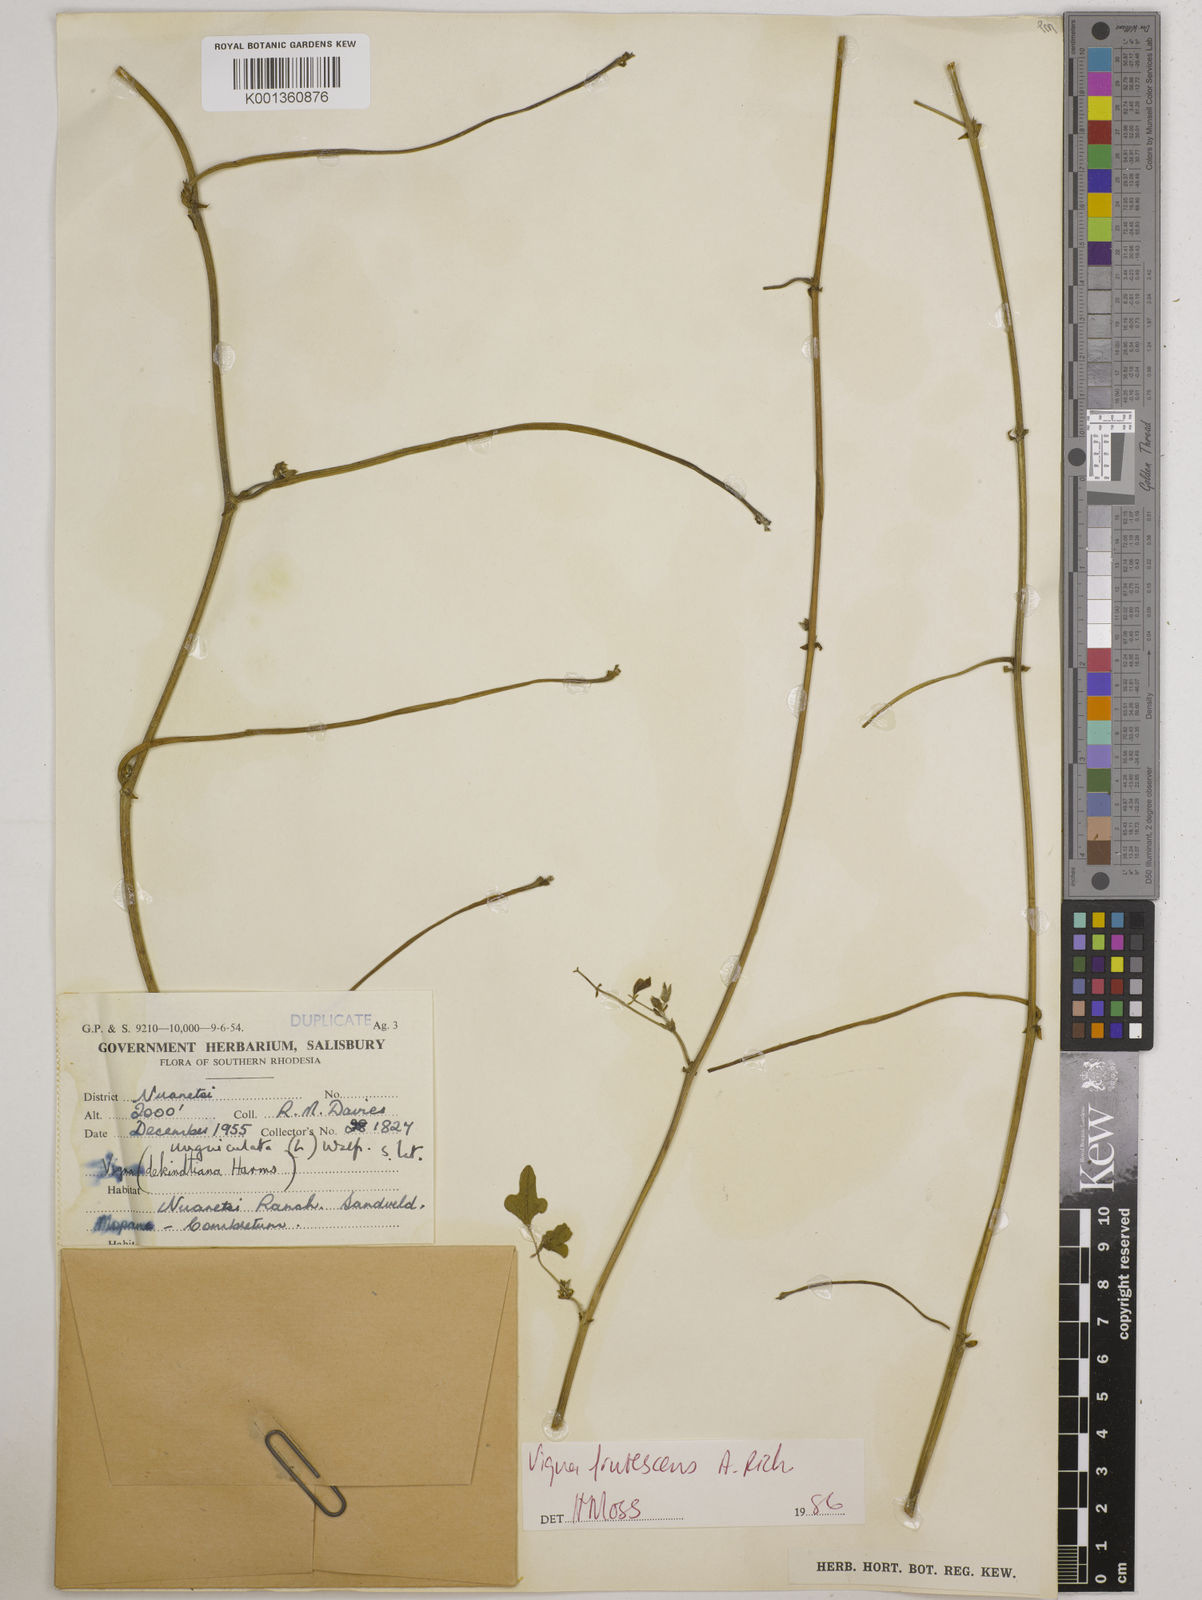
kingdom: Plantae
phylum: Tracheophyta
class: Magnoliopsida
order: Fabales
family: Fabaceae
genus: Vigna
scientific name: Vigna
